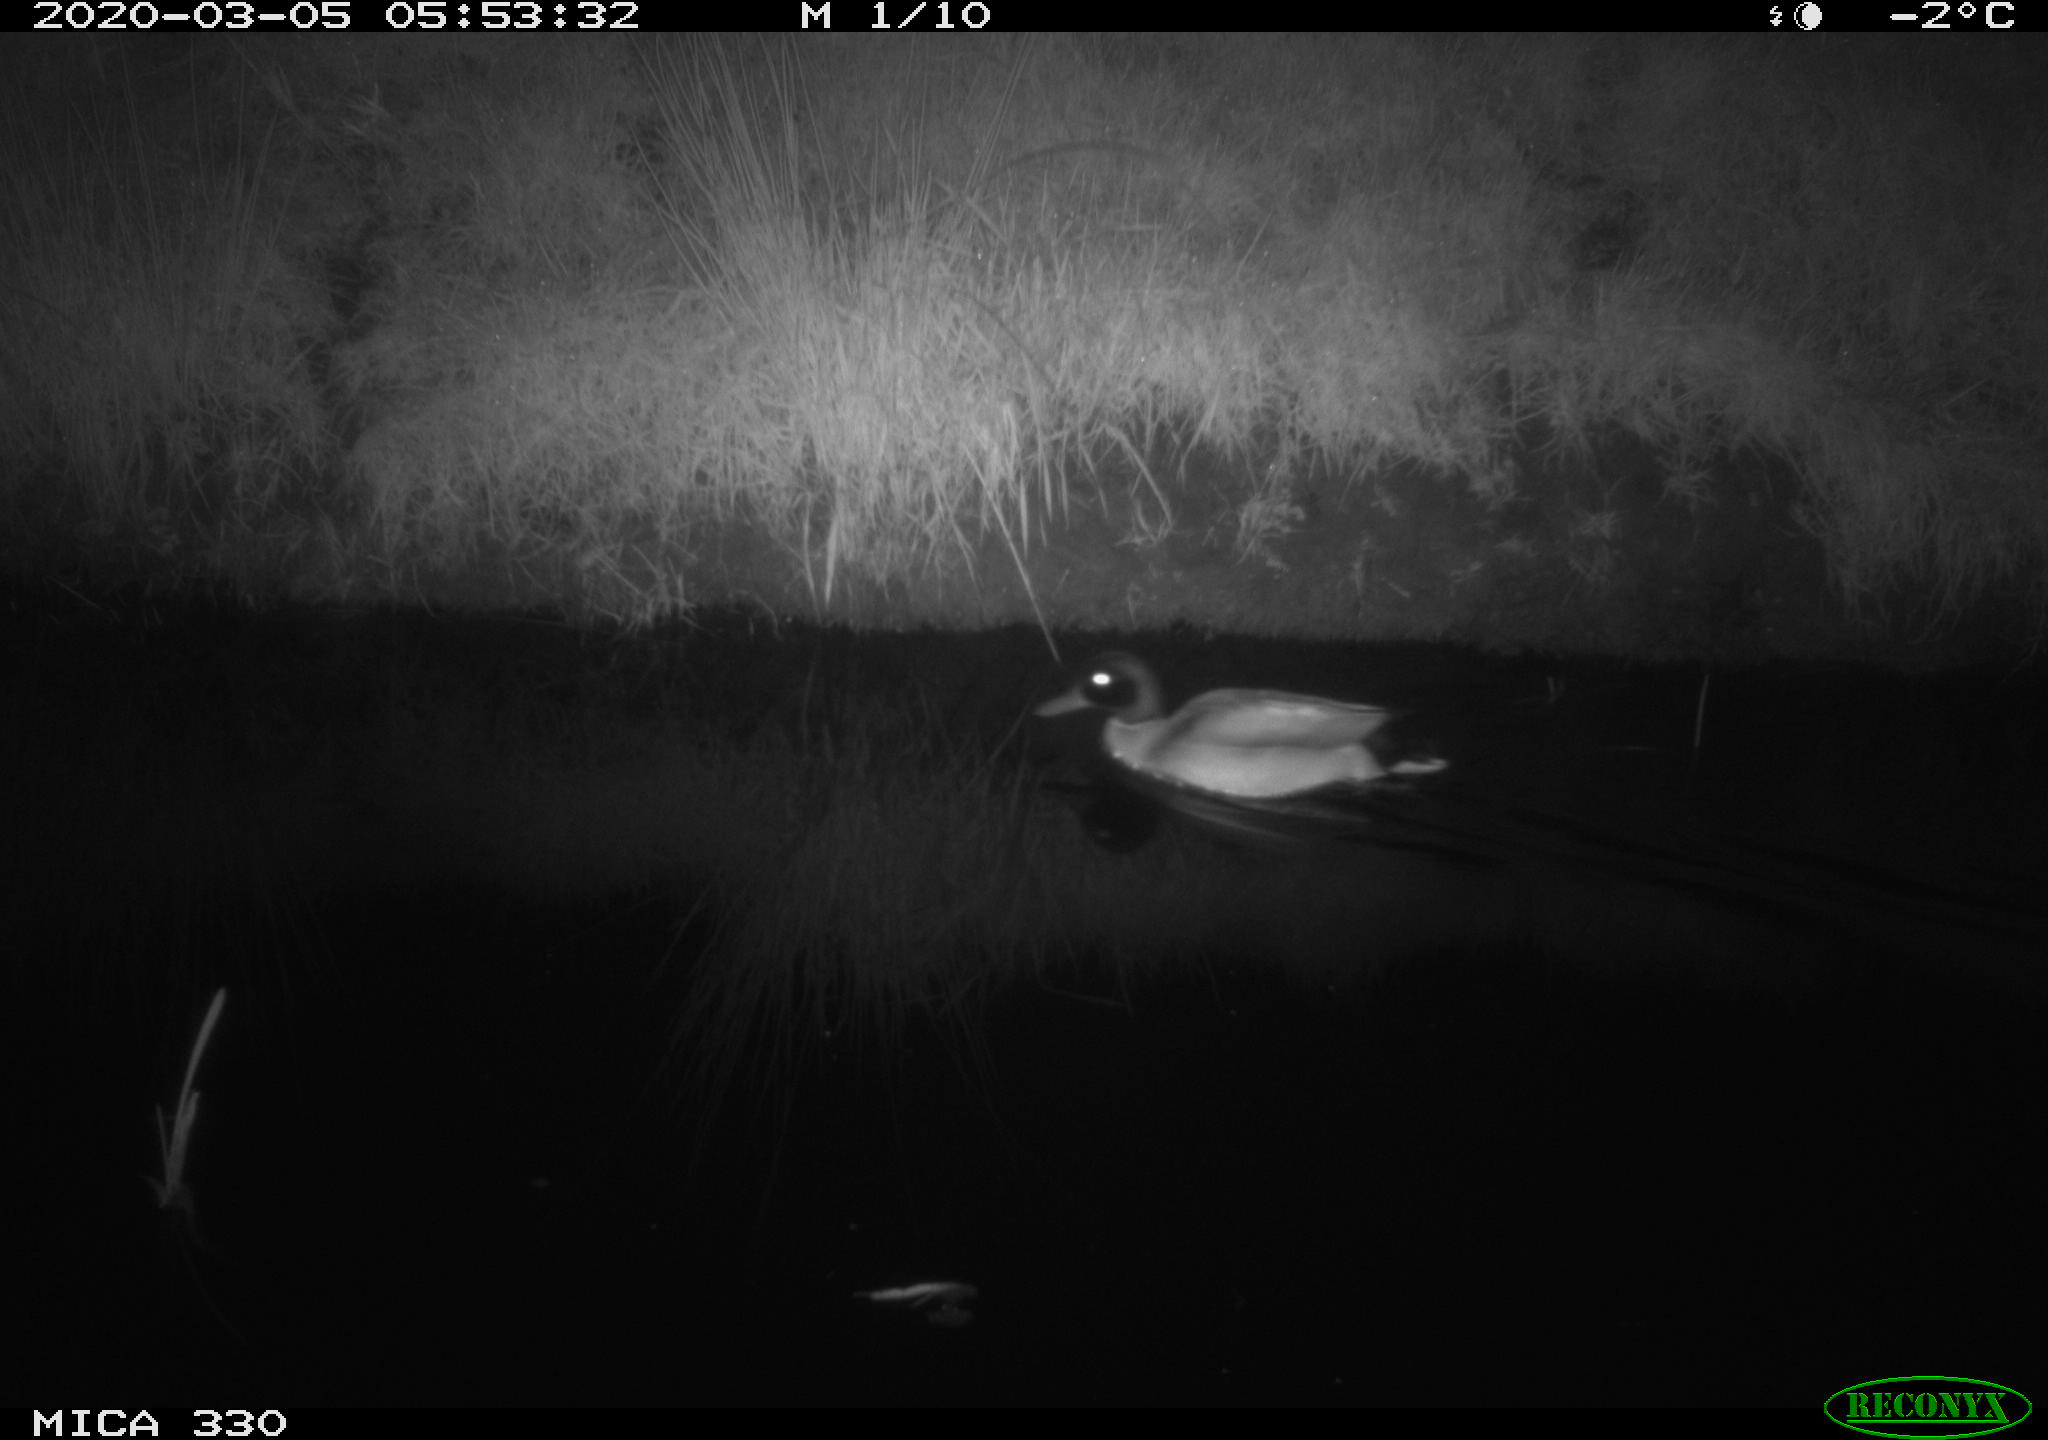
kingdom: Animalia
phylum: Chordata
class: Aves
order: Anseriformes
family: Anatidae
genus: Anas
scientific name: Anas platyrhynchos
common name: Mallard
